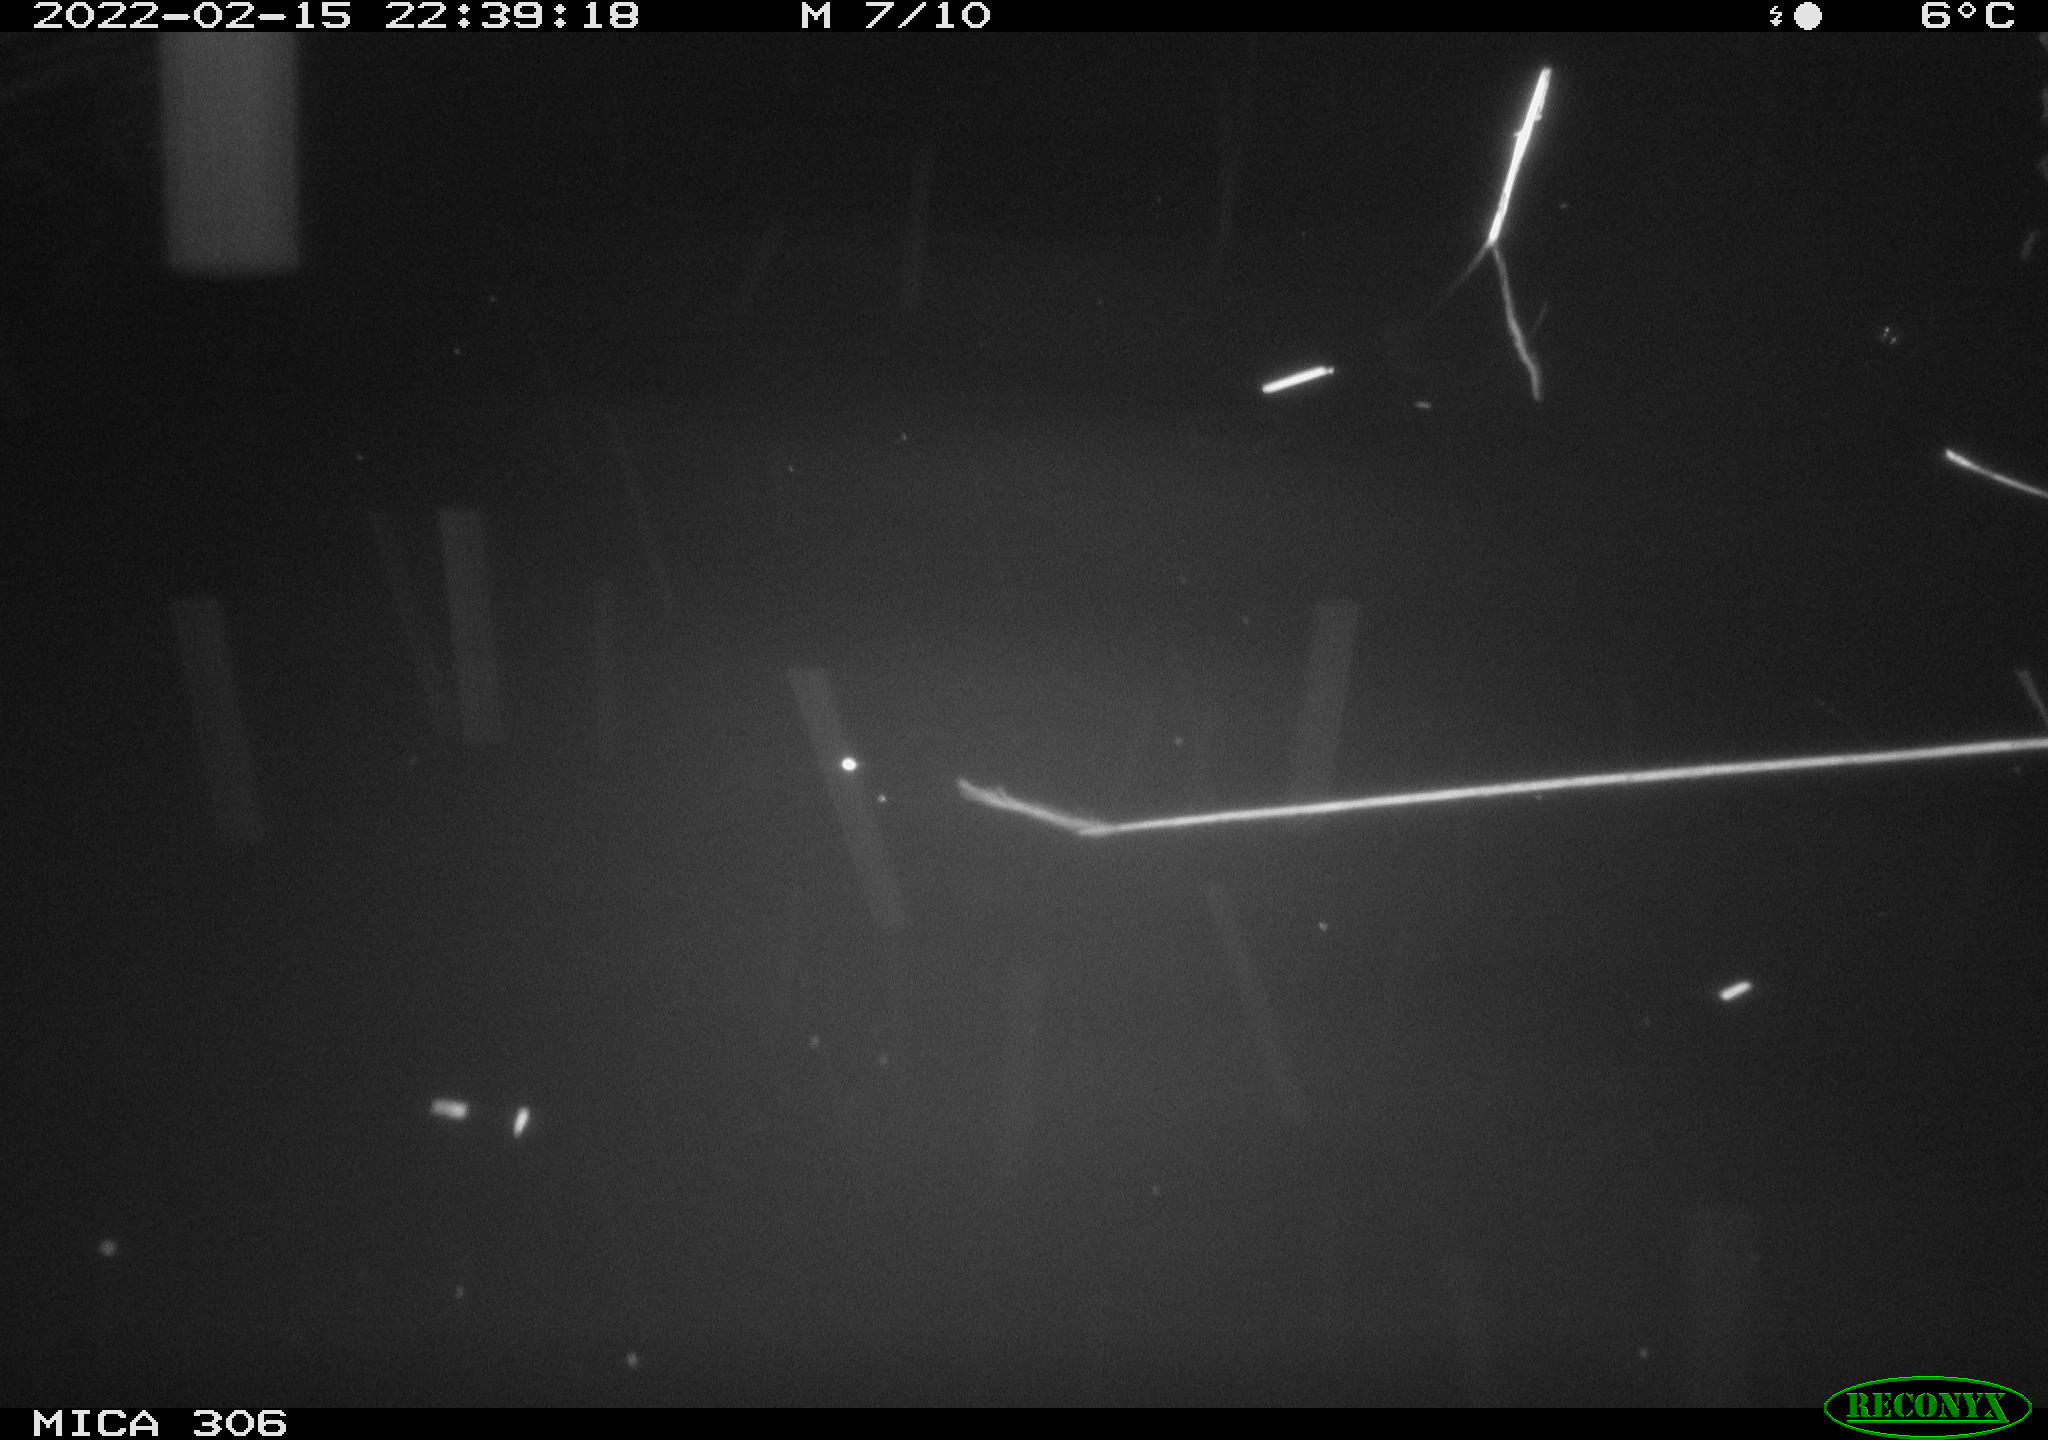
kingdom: Animalia
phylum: Chordata
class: Mammalia
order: Rodentia
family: Cricetidae
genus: Ondatra
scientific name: Ondatra zibethicus
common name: Muskrat
